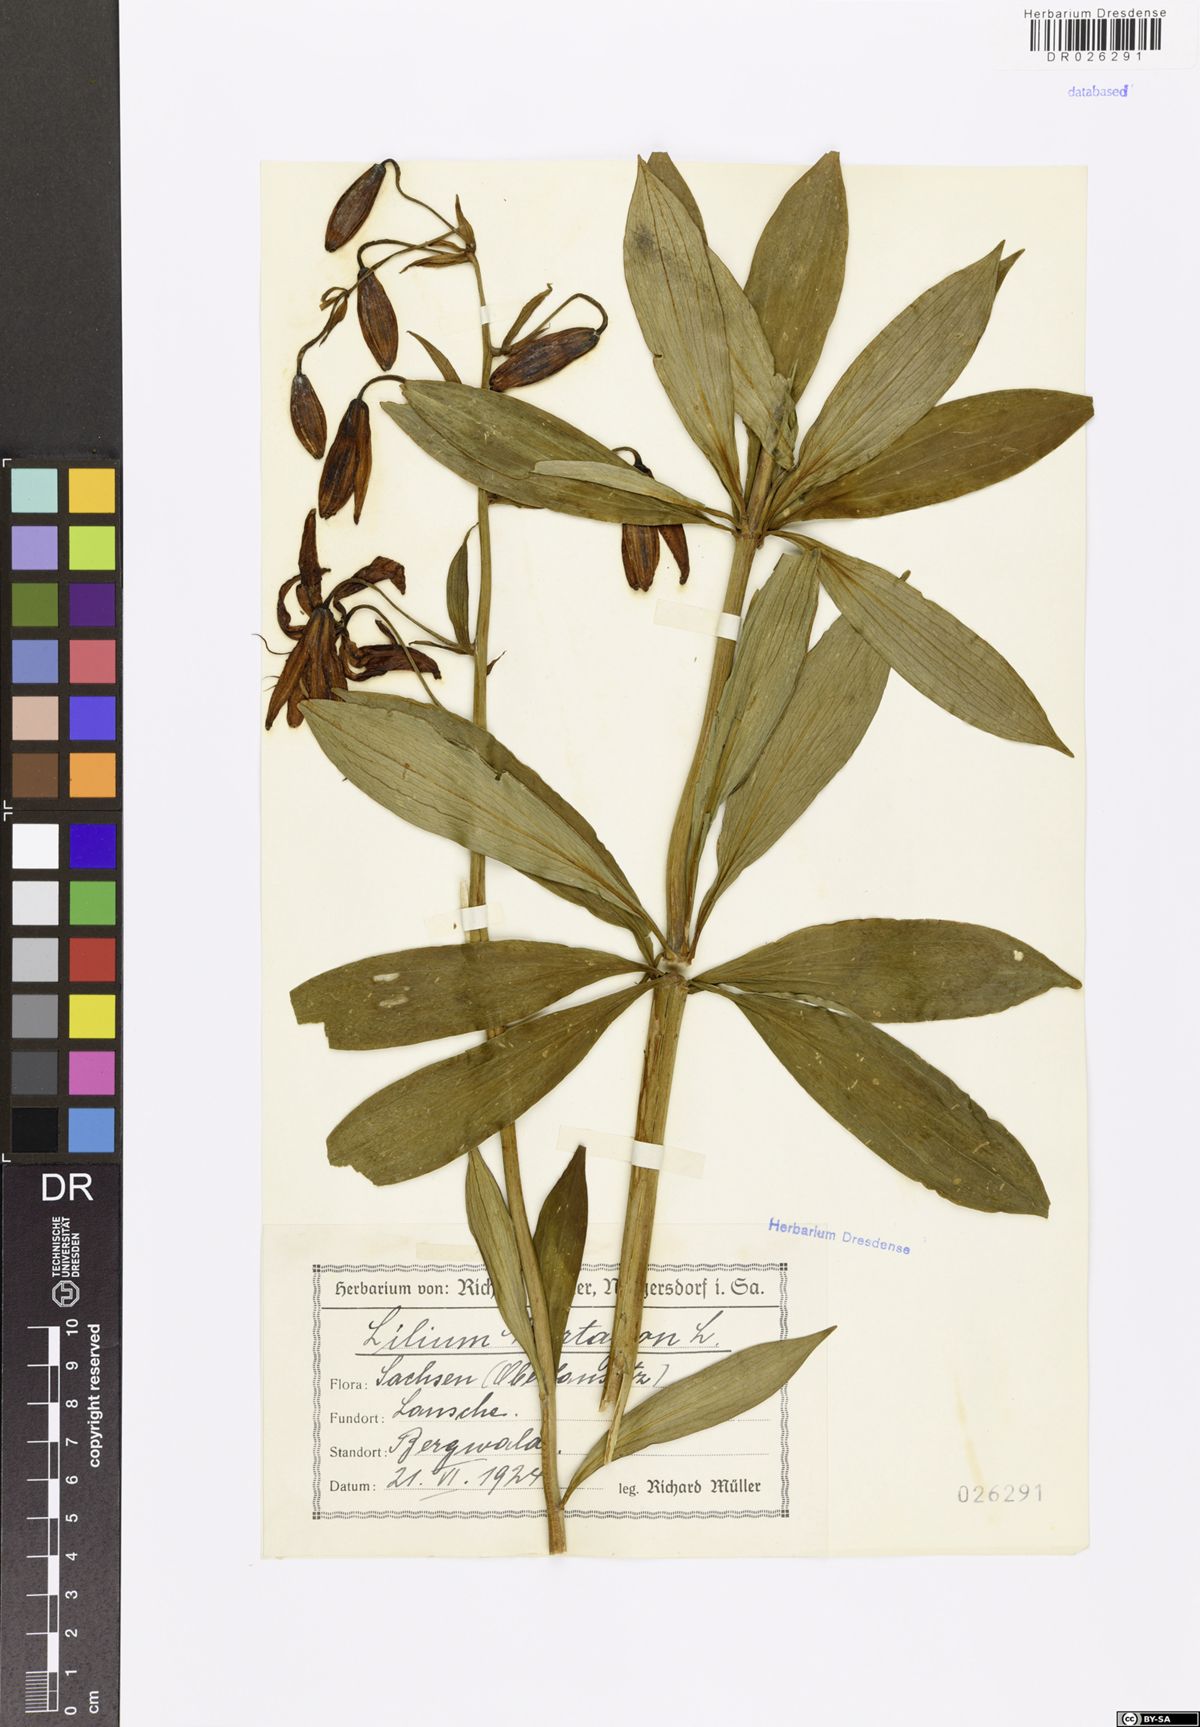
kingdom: Plantae
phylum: Tracheophyta
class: Liliopsida
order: Liliales
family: Liliaceae
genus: Lilium
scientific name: Lilium martagon
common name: Martagon lily
